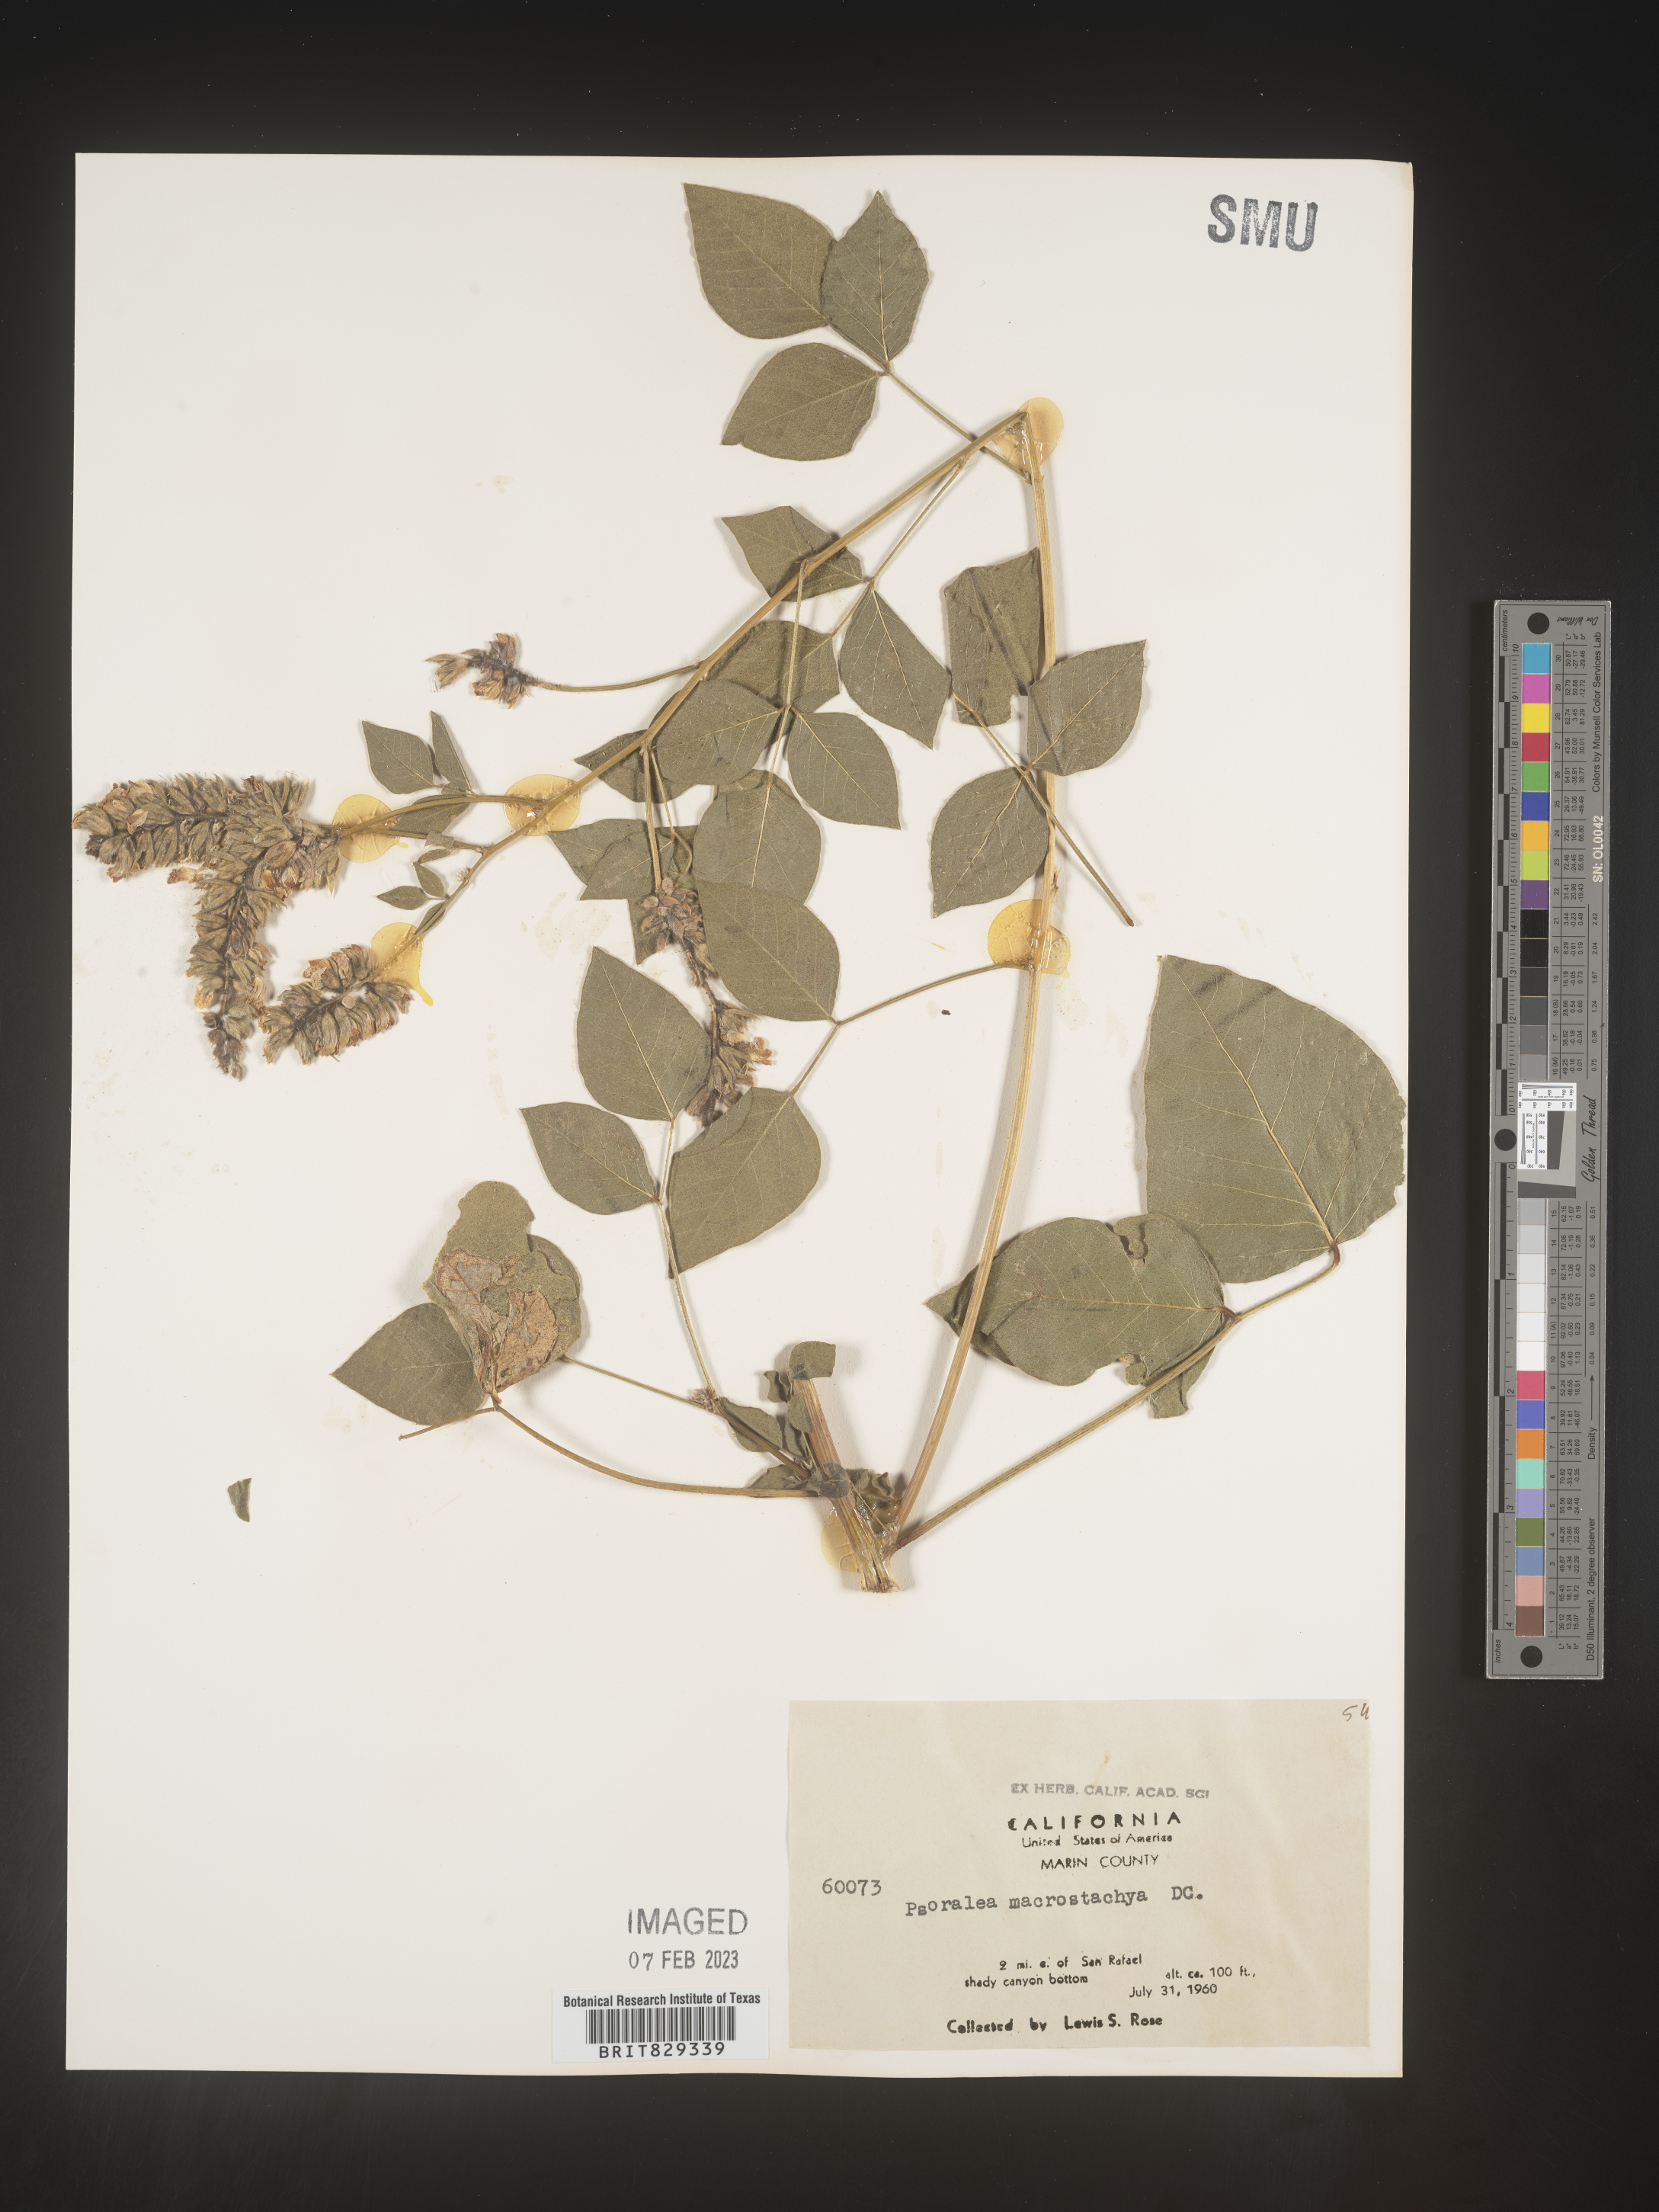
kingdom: Plantae
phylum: Tracheophyta
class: Magnoliopsida
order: Fabales
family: Fabaceae
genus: Psoralea
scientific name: Psoralea
